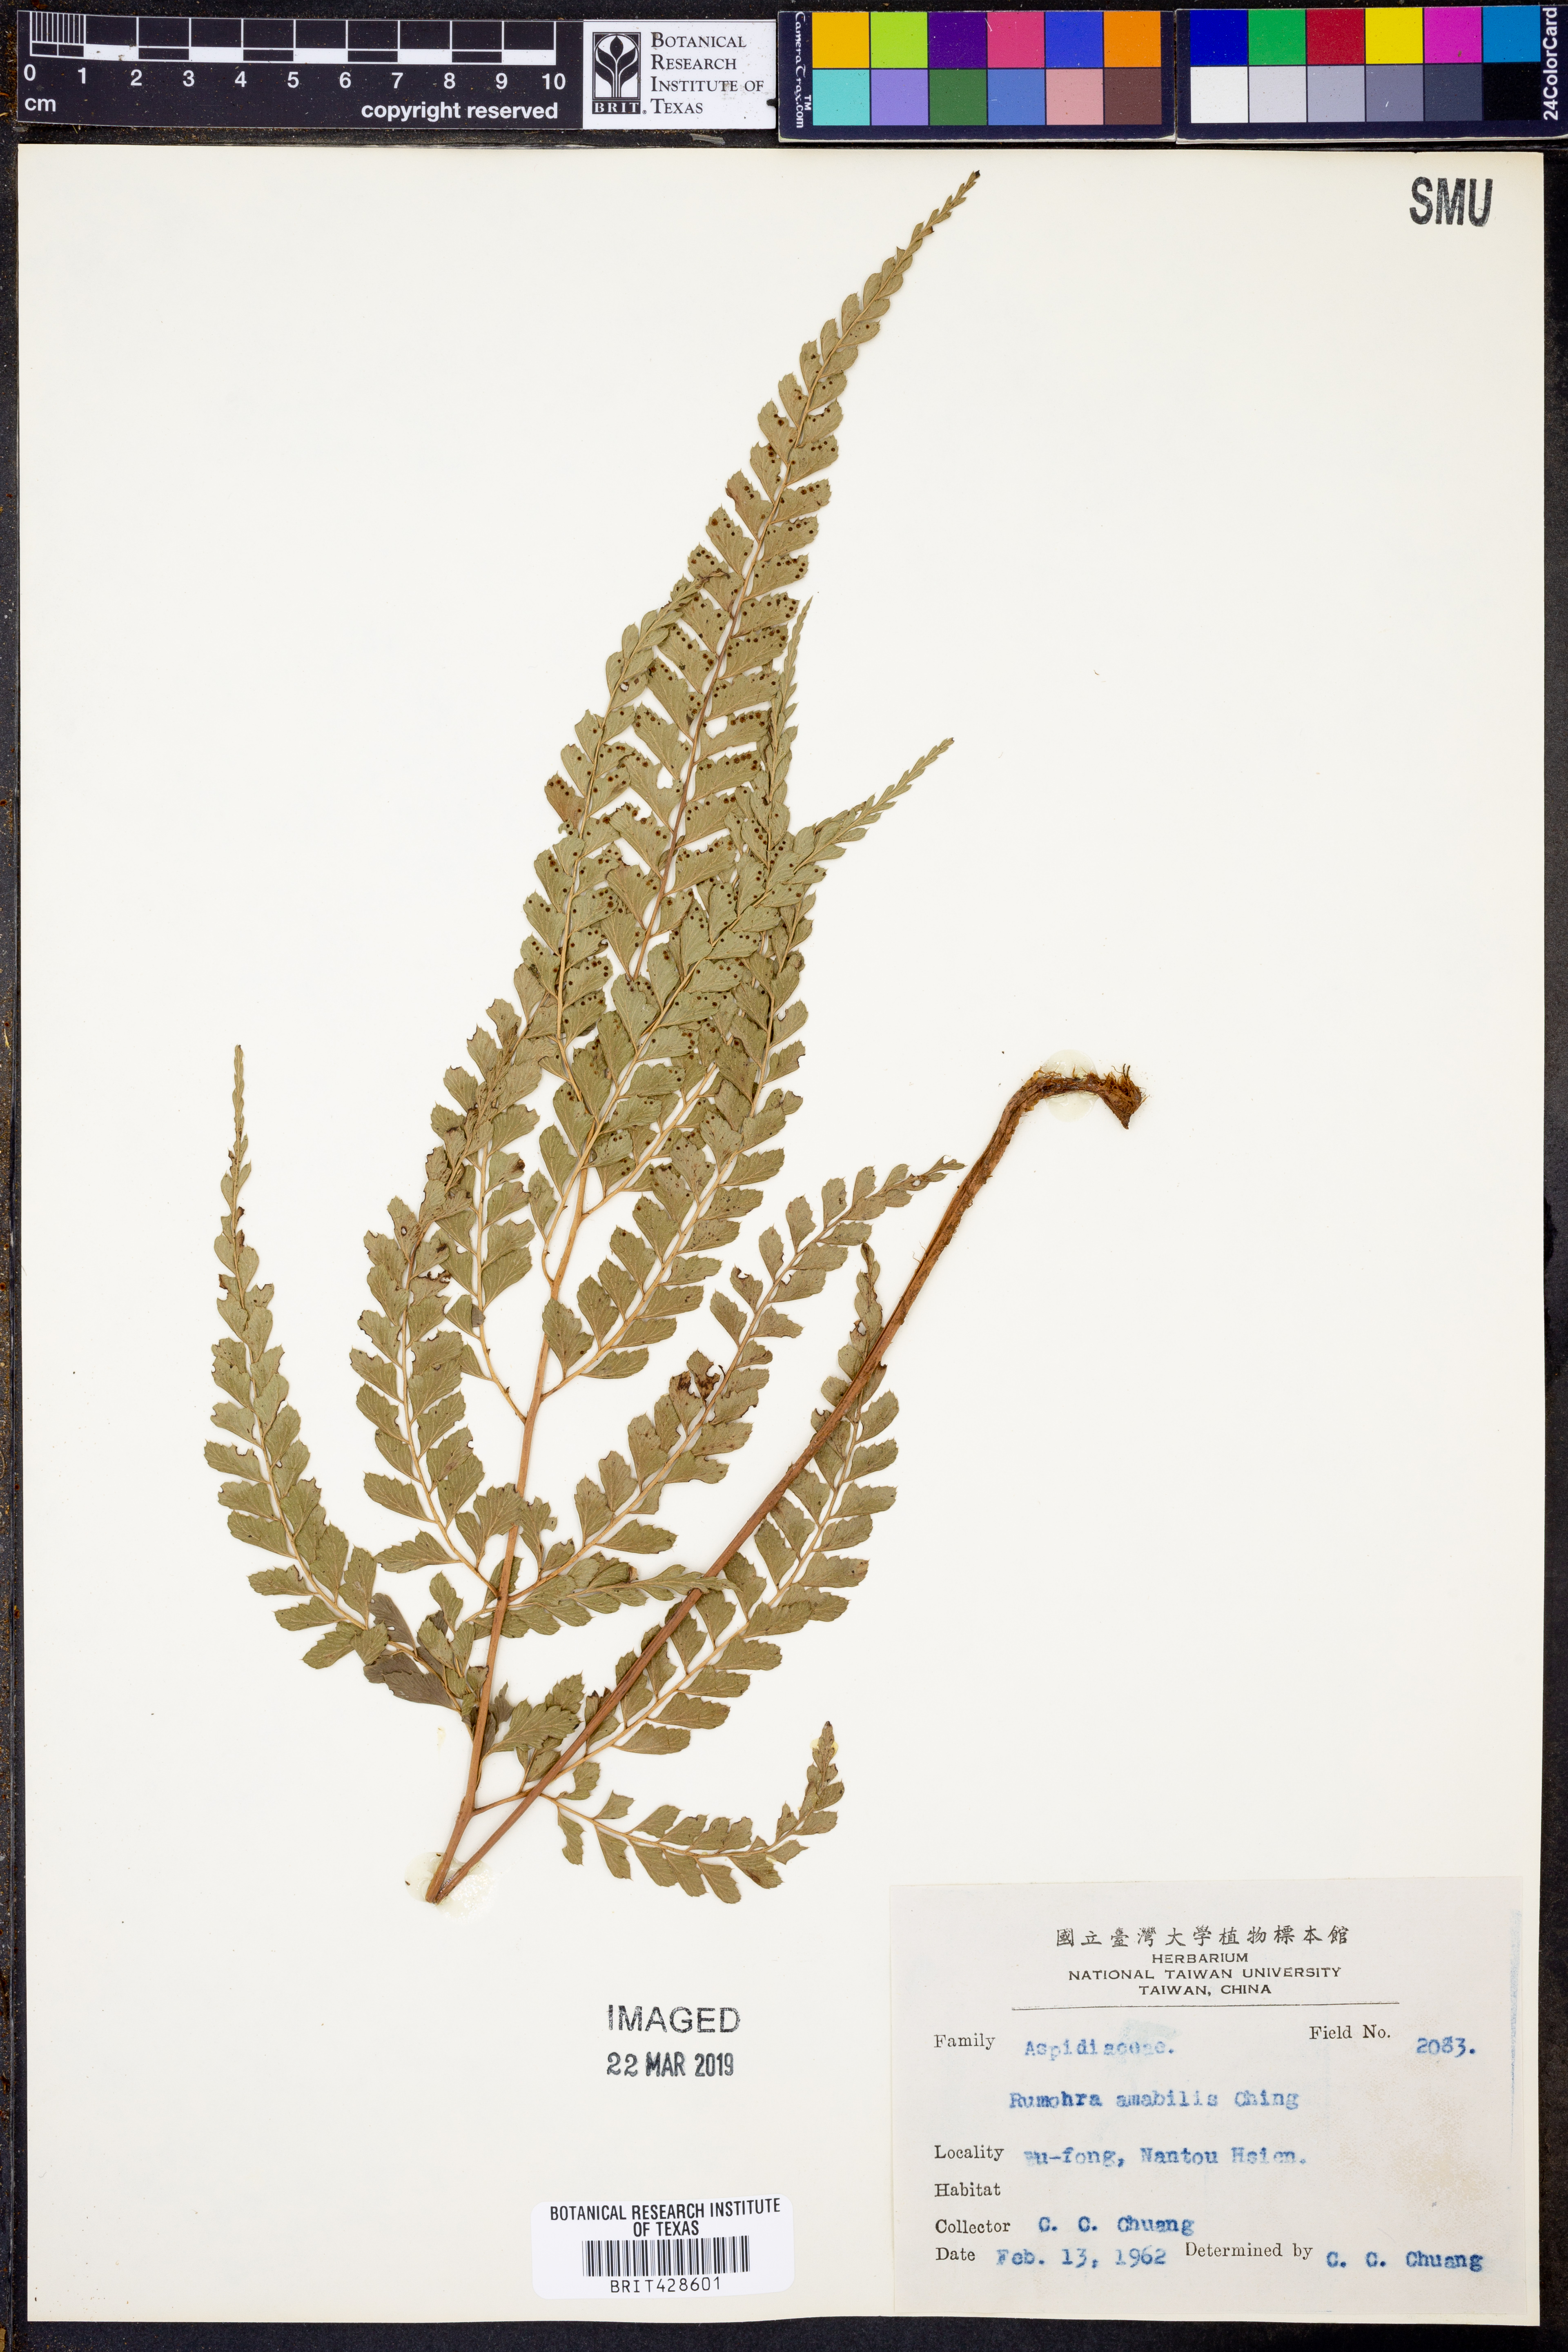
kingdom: Plantae
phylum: Tracheophyta
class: Polypodiopsida
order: Polypodiales
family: Dryopteridaceae
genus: Arachniodes
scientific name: Arachniodes amabilis
